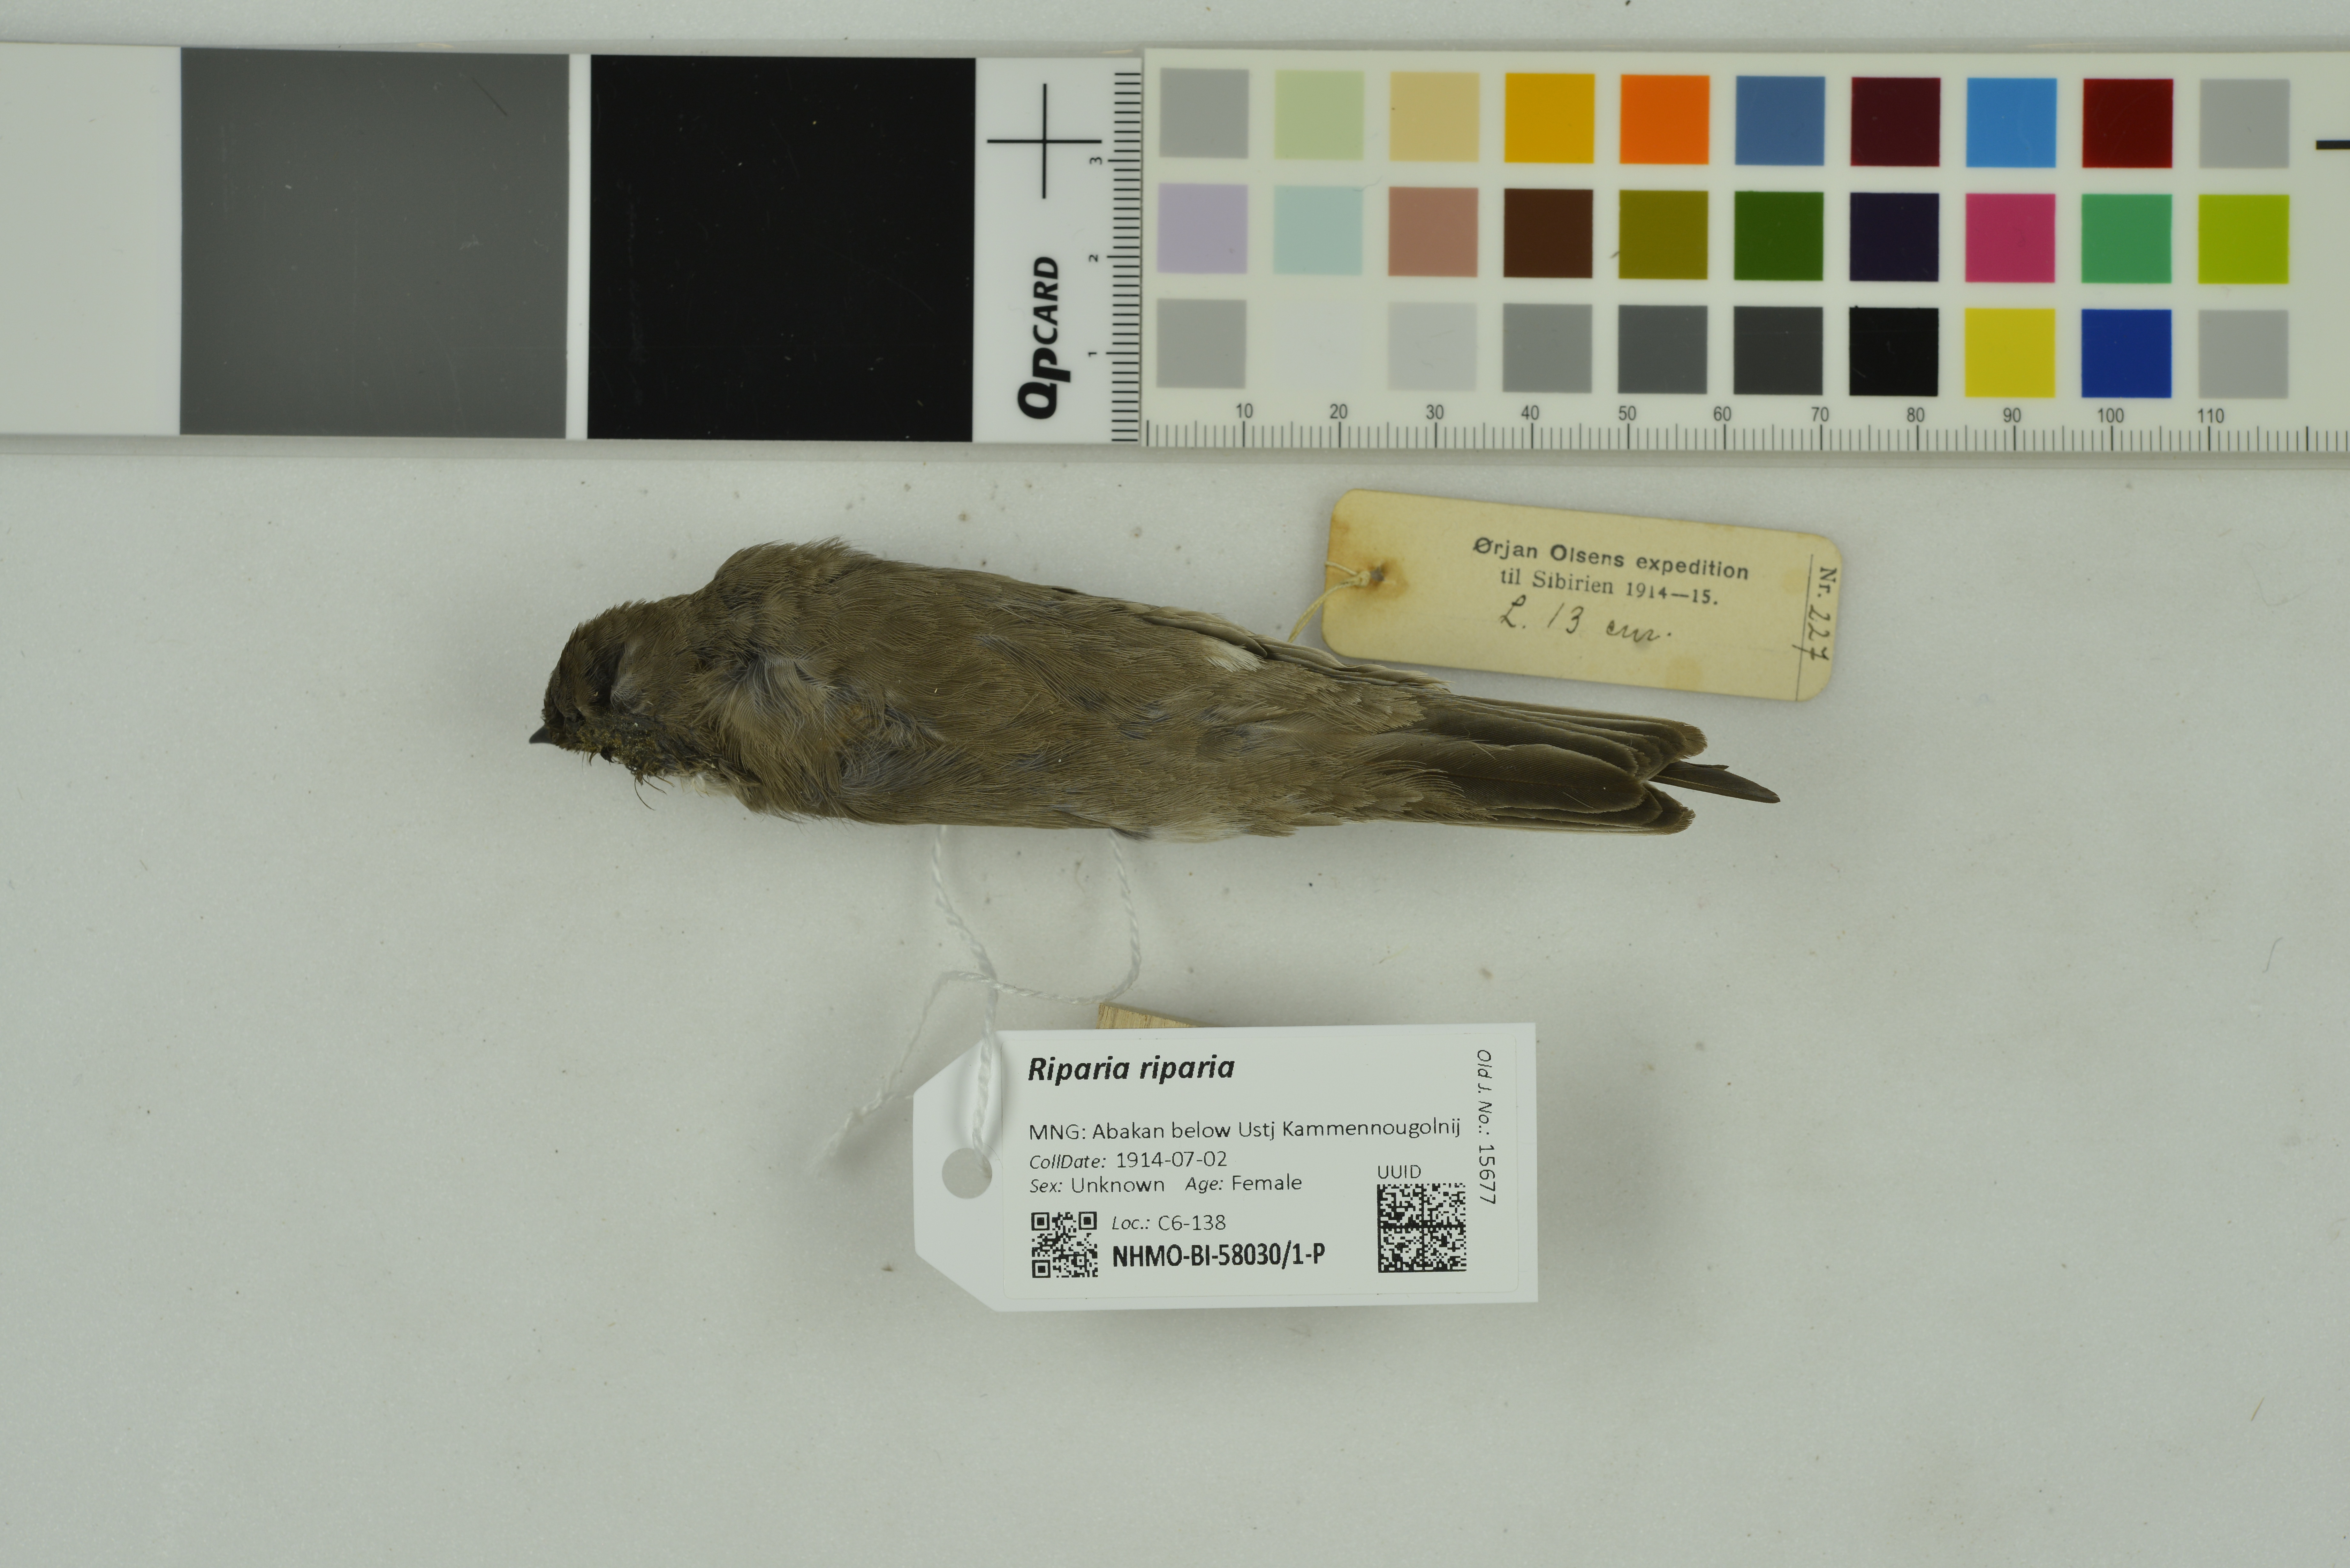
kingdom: Animalia
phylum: Chordata
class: Aves
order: Passeriformes
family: Hirundinidae
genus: Riparia
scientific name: Riparia riparia
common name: Sand martin
